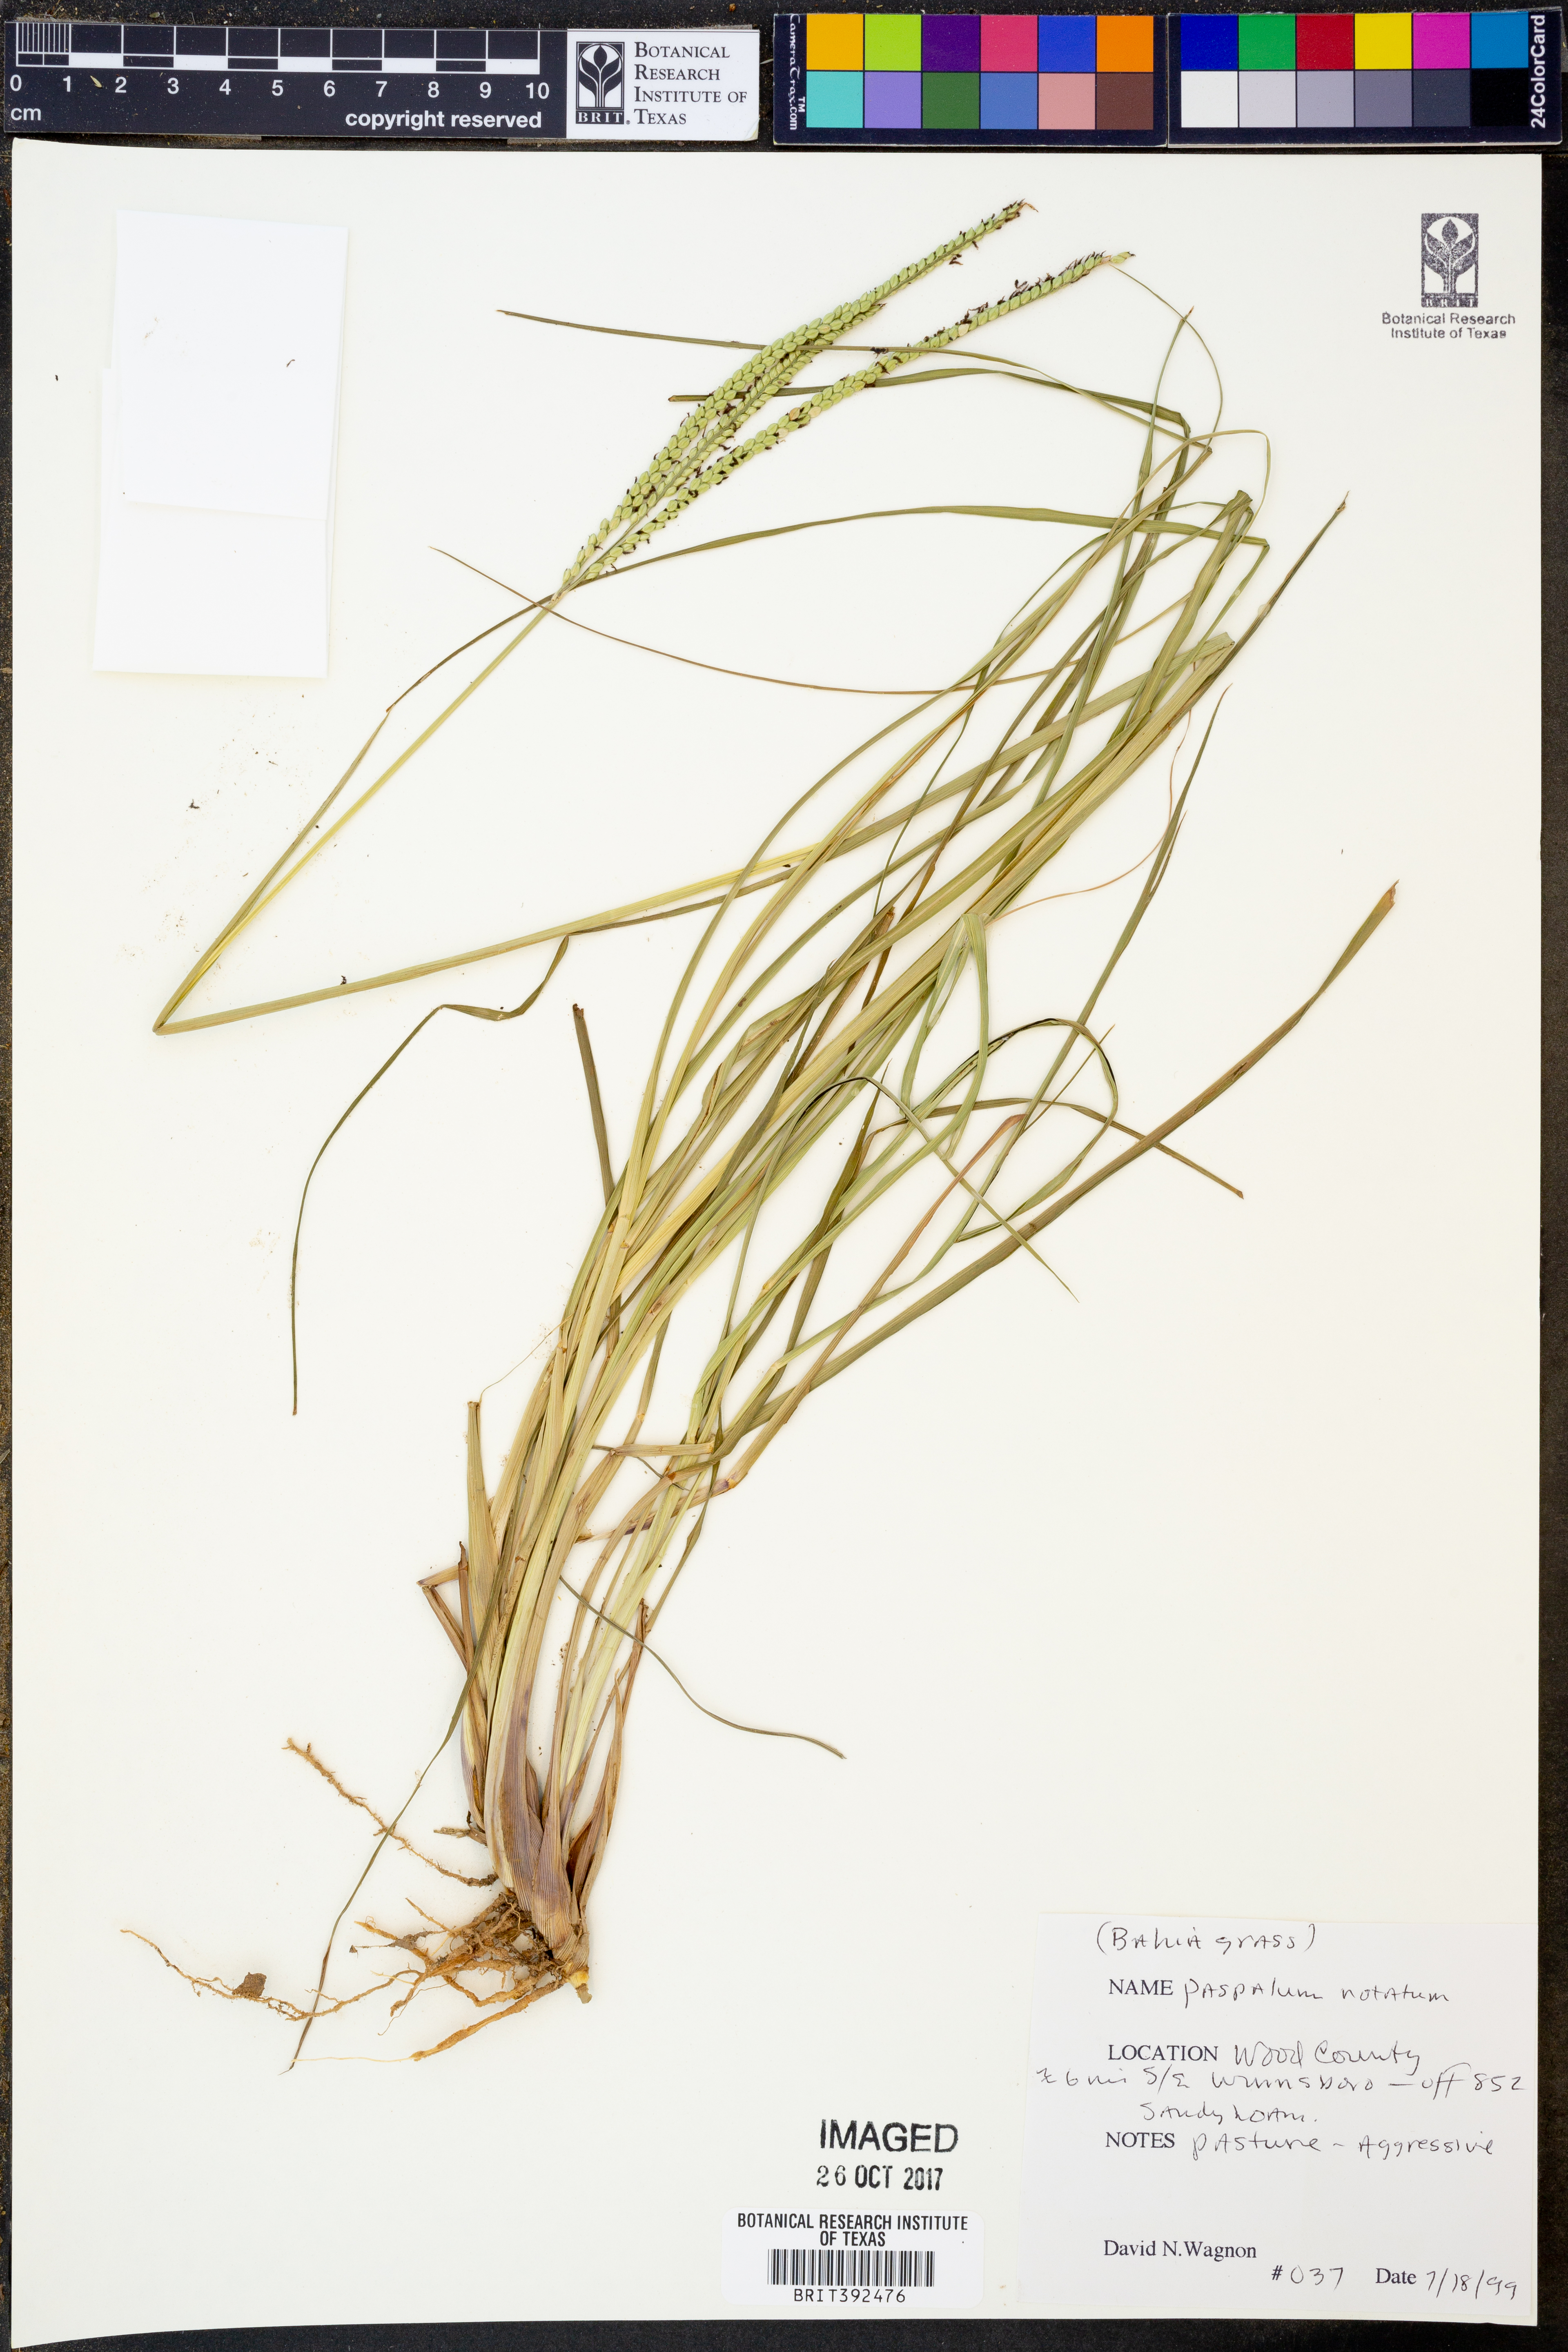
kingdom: Plantae
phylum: Tracheophyta
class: Liliopsida
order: Poales
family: Poaceae
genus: Paspalum
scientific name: Paspalum notatum
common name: Bahiagrass
